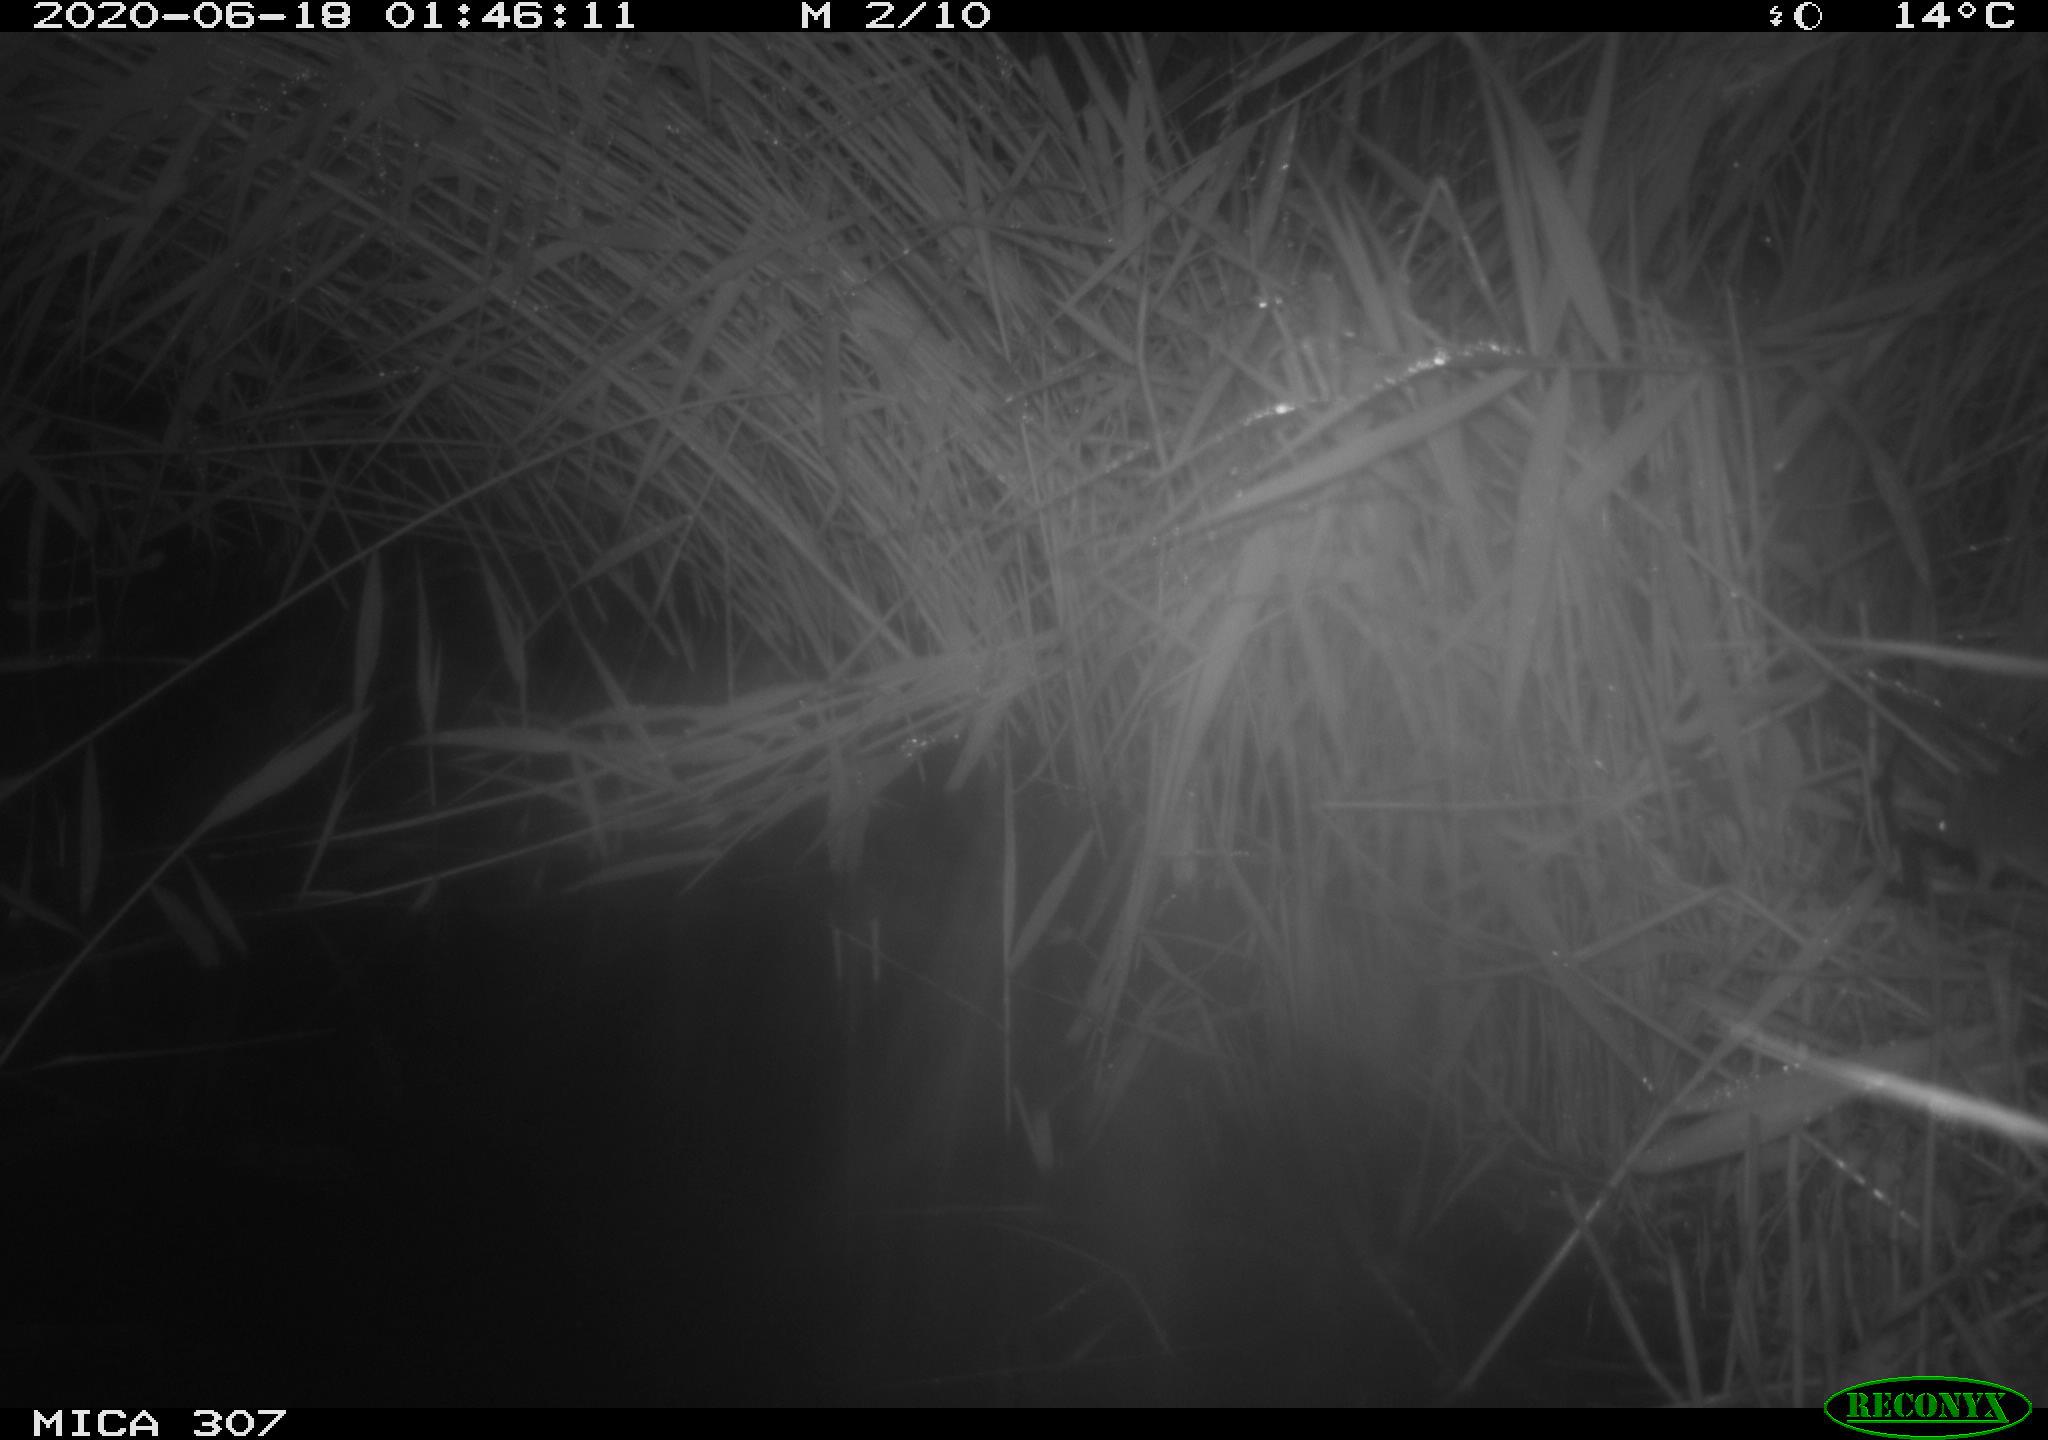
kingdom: Animalia
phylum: Chordata
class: Mammalia
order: Rodentia
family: Muridae
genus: Rattus
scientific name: Rattus norvegicus
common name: Brown rat
